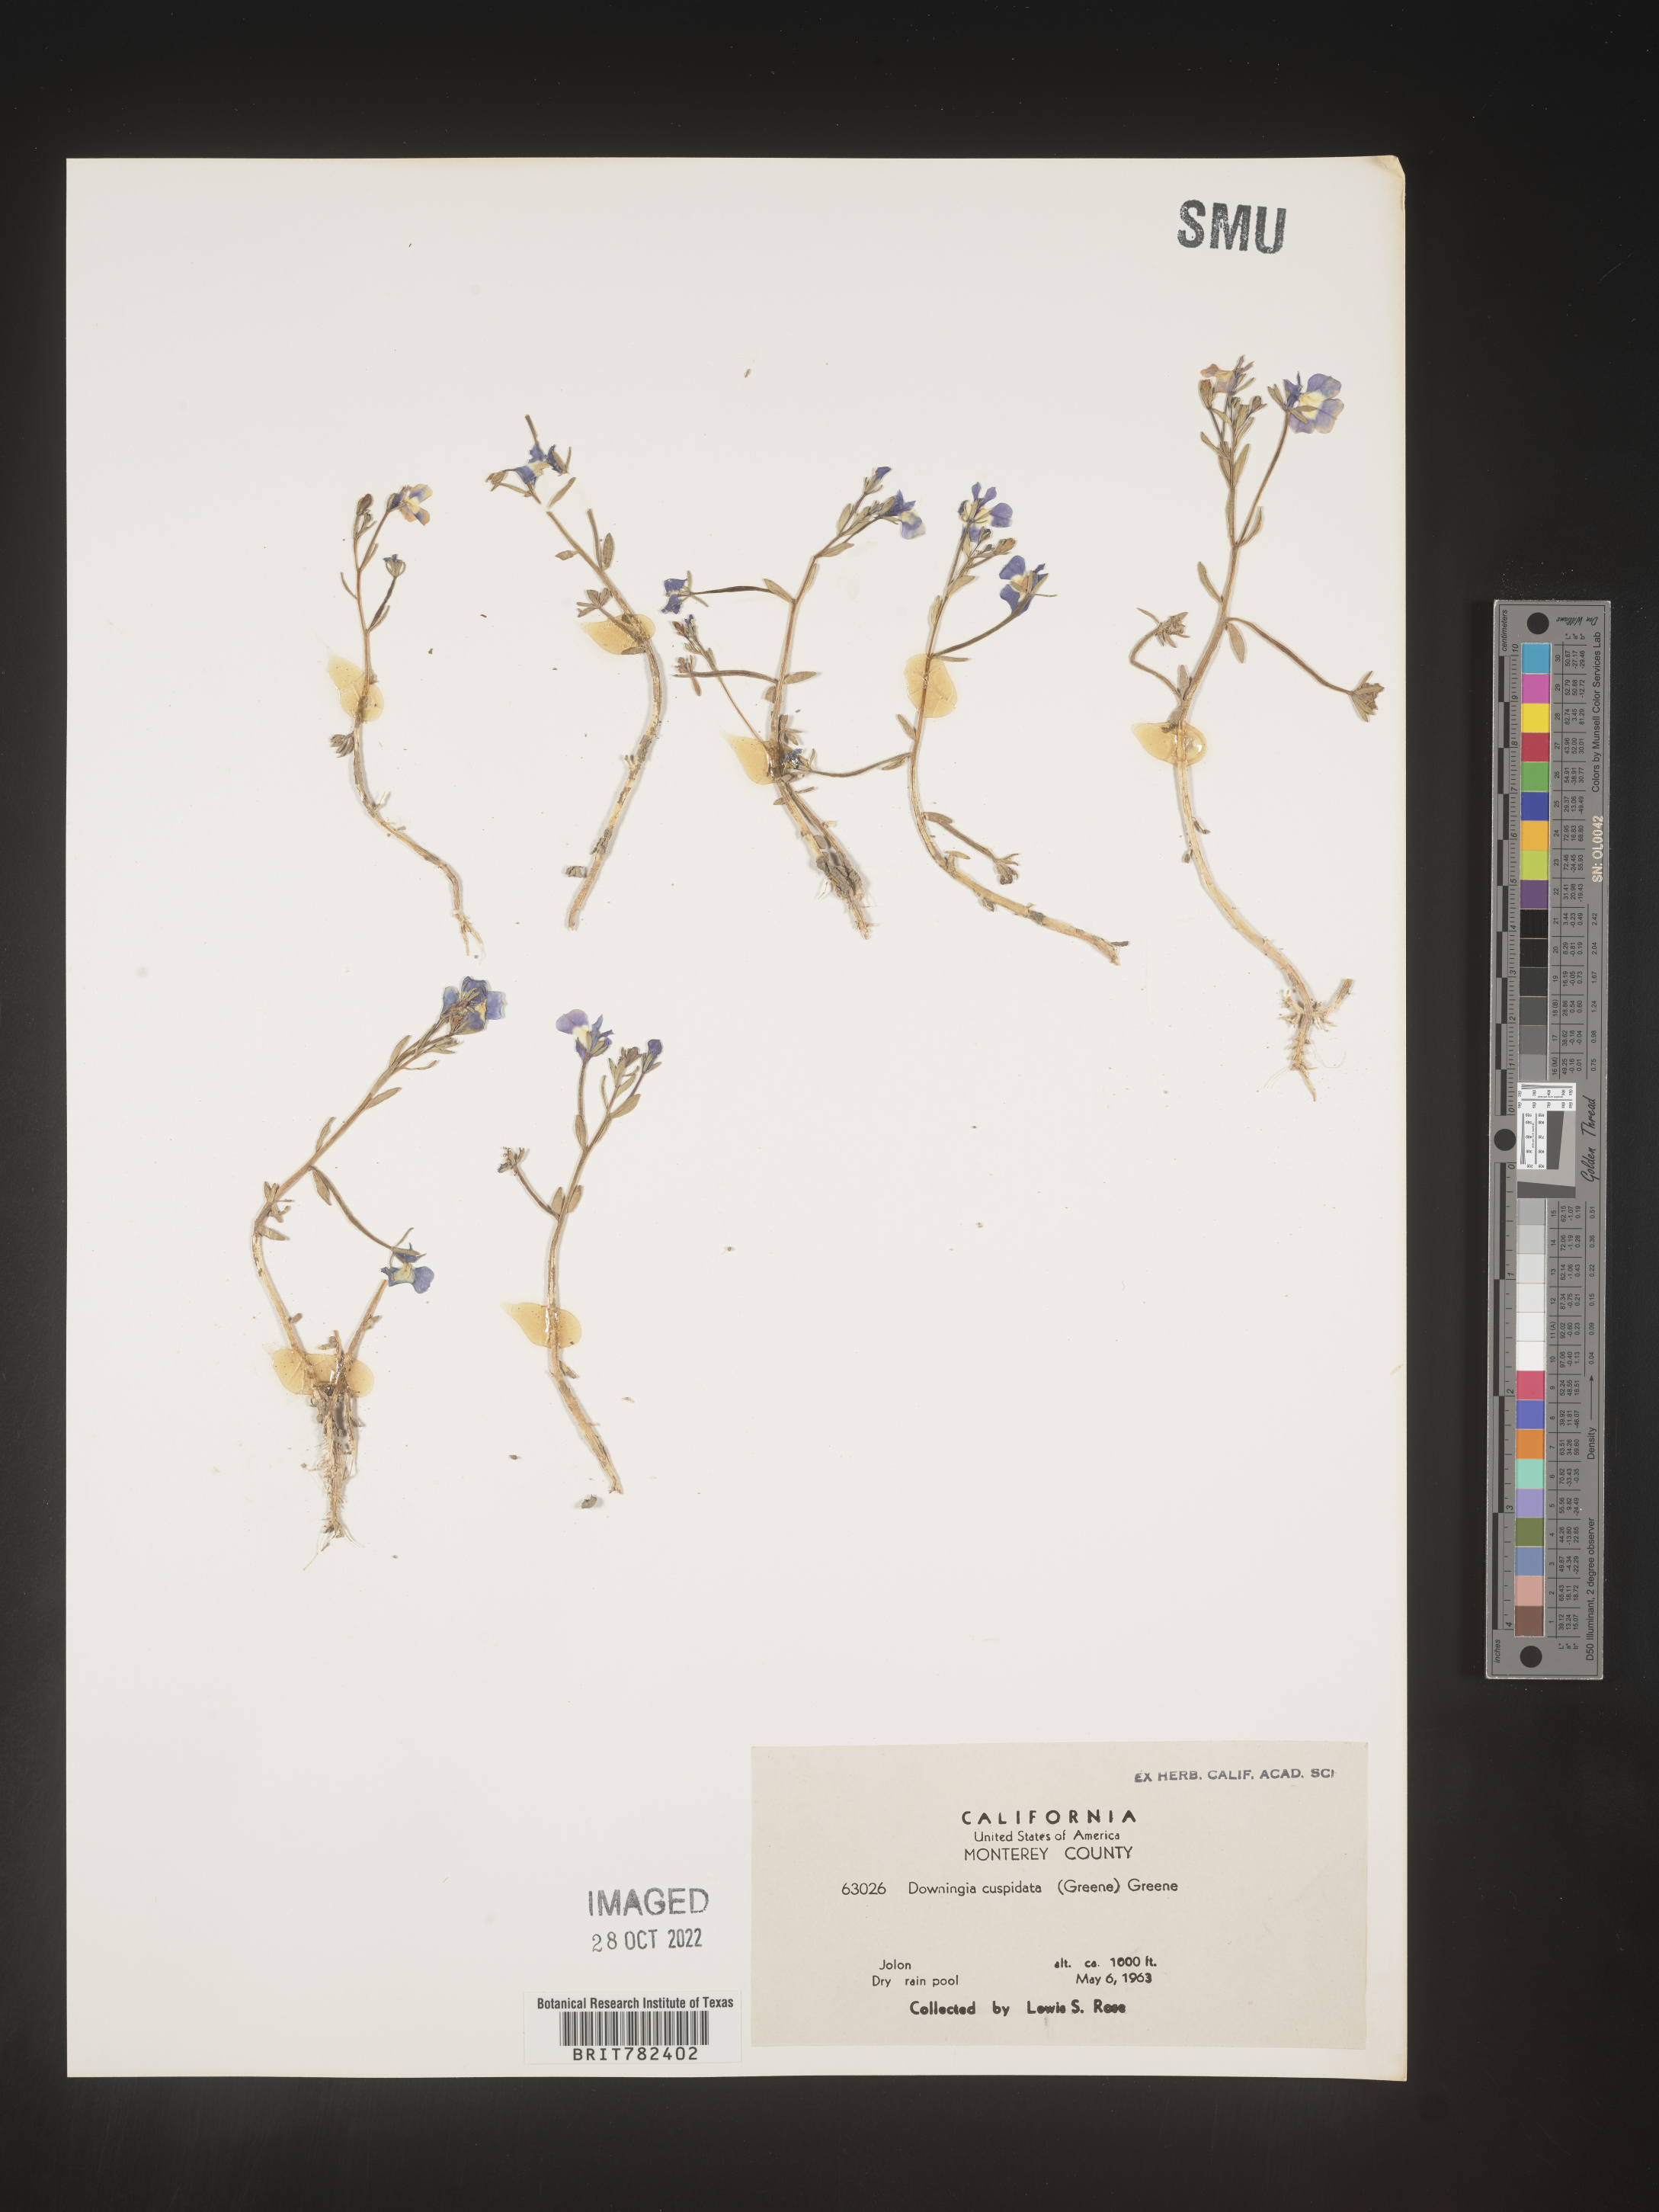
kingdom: Plantae
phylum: Tracheophyta
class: Magnoliopsida
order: Asterales
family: Campanulaceae
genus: Downingia
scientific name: Downingia
